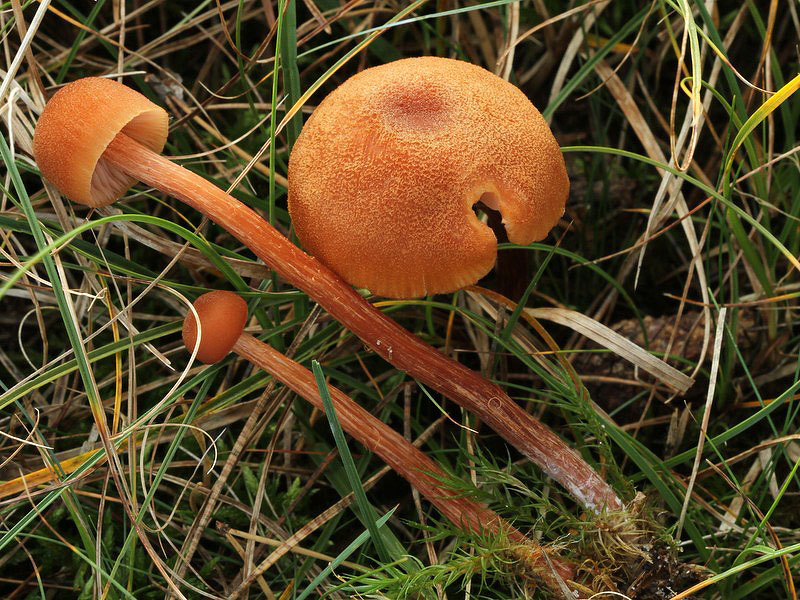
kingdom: Fungi
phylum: Basidiomycota
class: Agaricomycetes
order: Agaricales
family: Hydnangiaceae
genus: Laccaria
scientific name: Laccaria bicolor
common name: tvefarvet ametysthat
